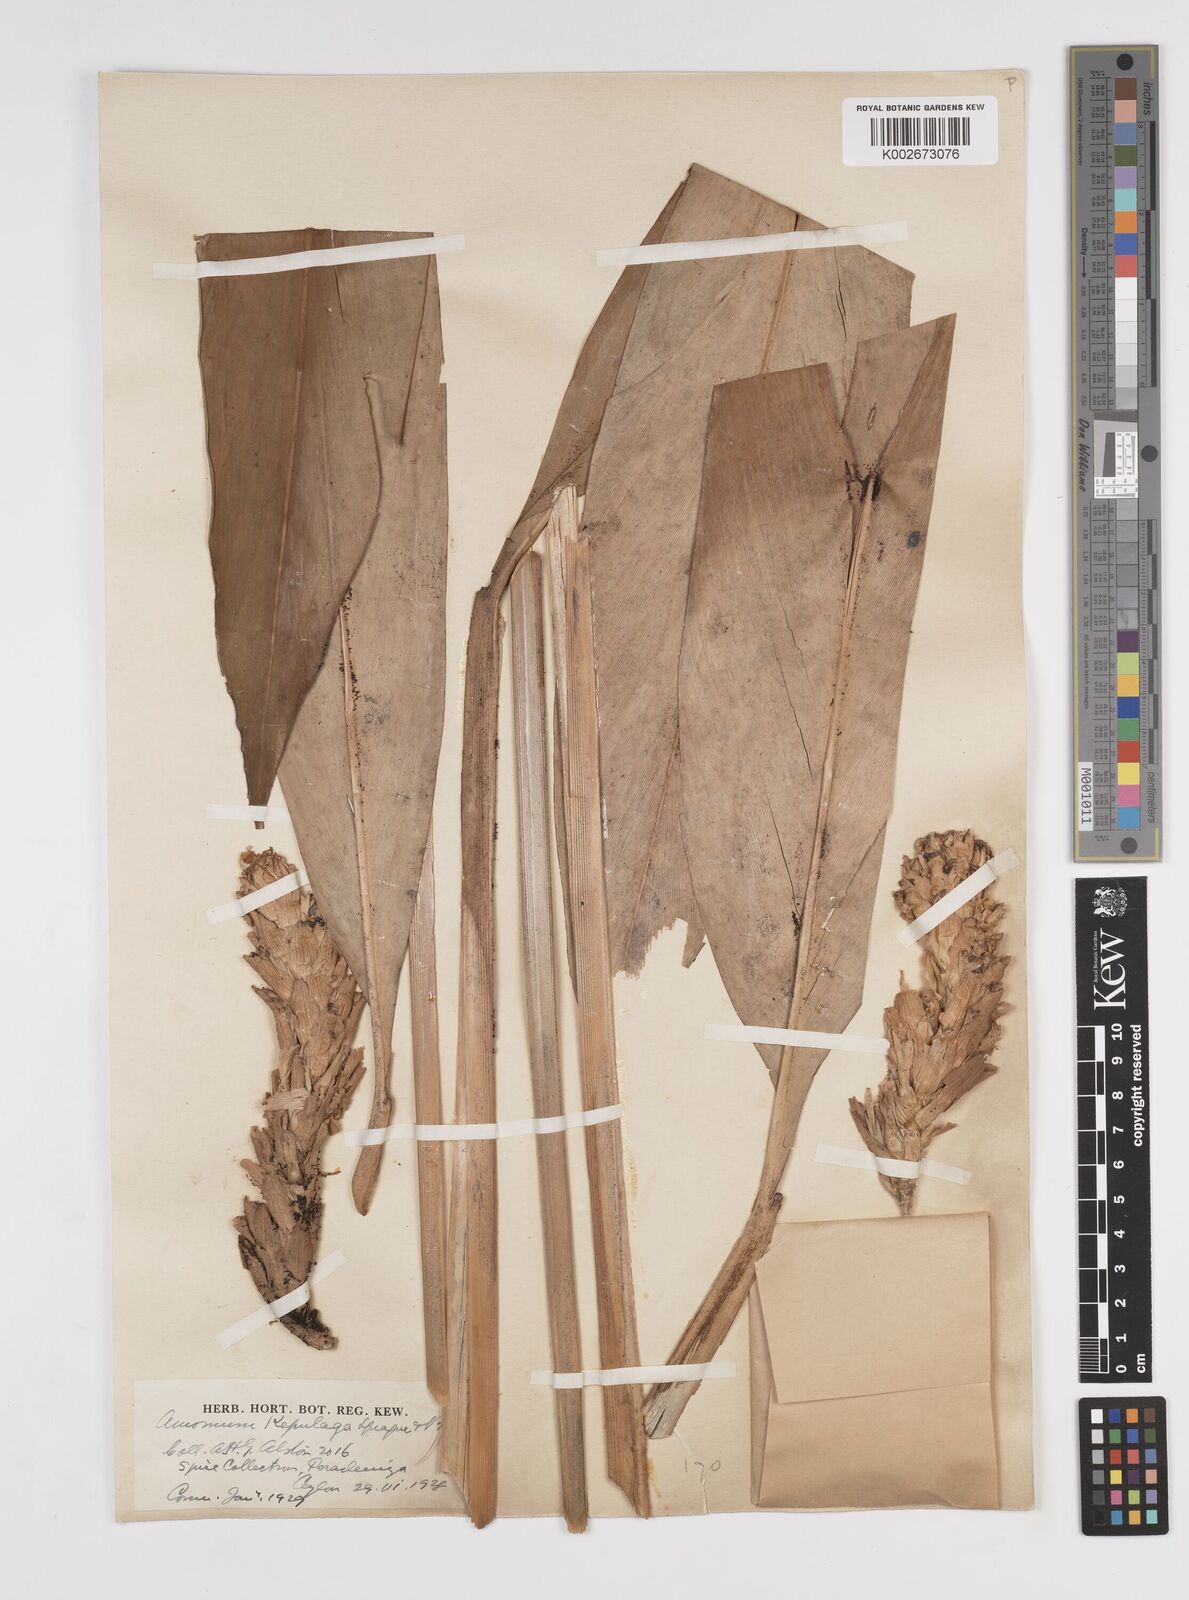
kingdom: Plantae
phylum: Tracheophyta
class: Liliopsida
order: Zingiberales
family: Zingiberaceae
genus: Wurfbainia
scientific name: Wurfbainia compacta
